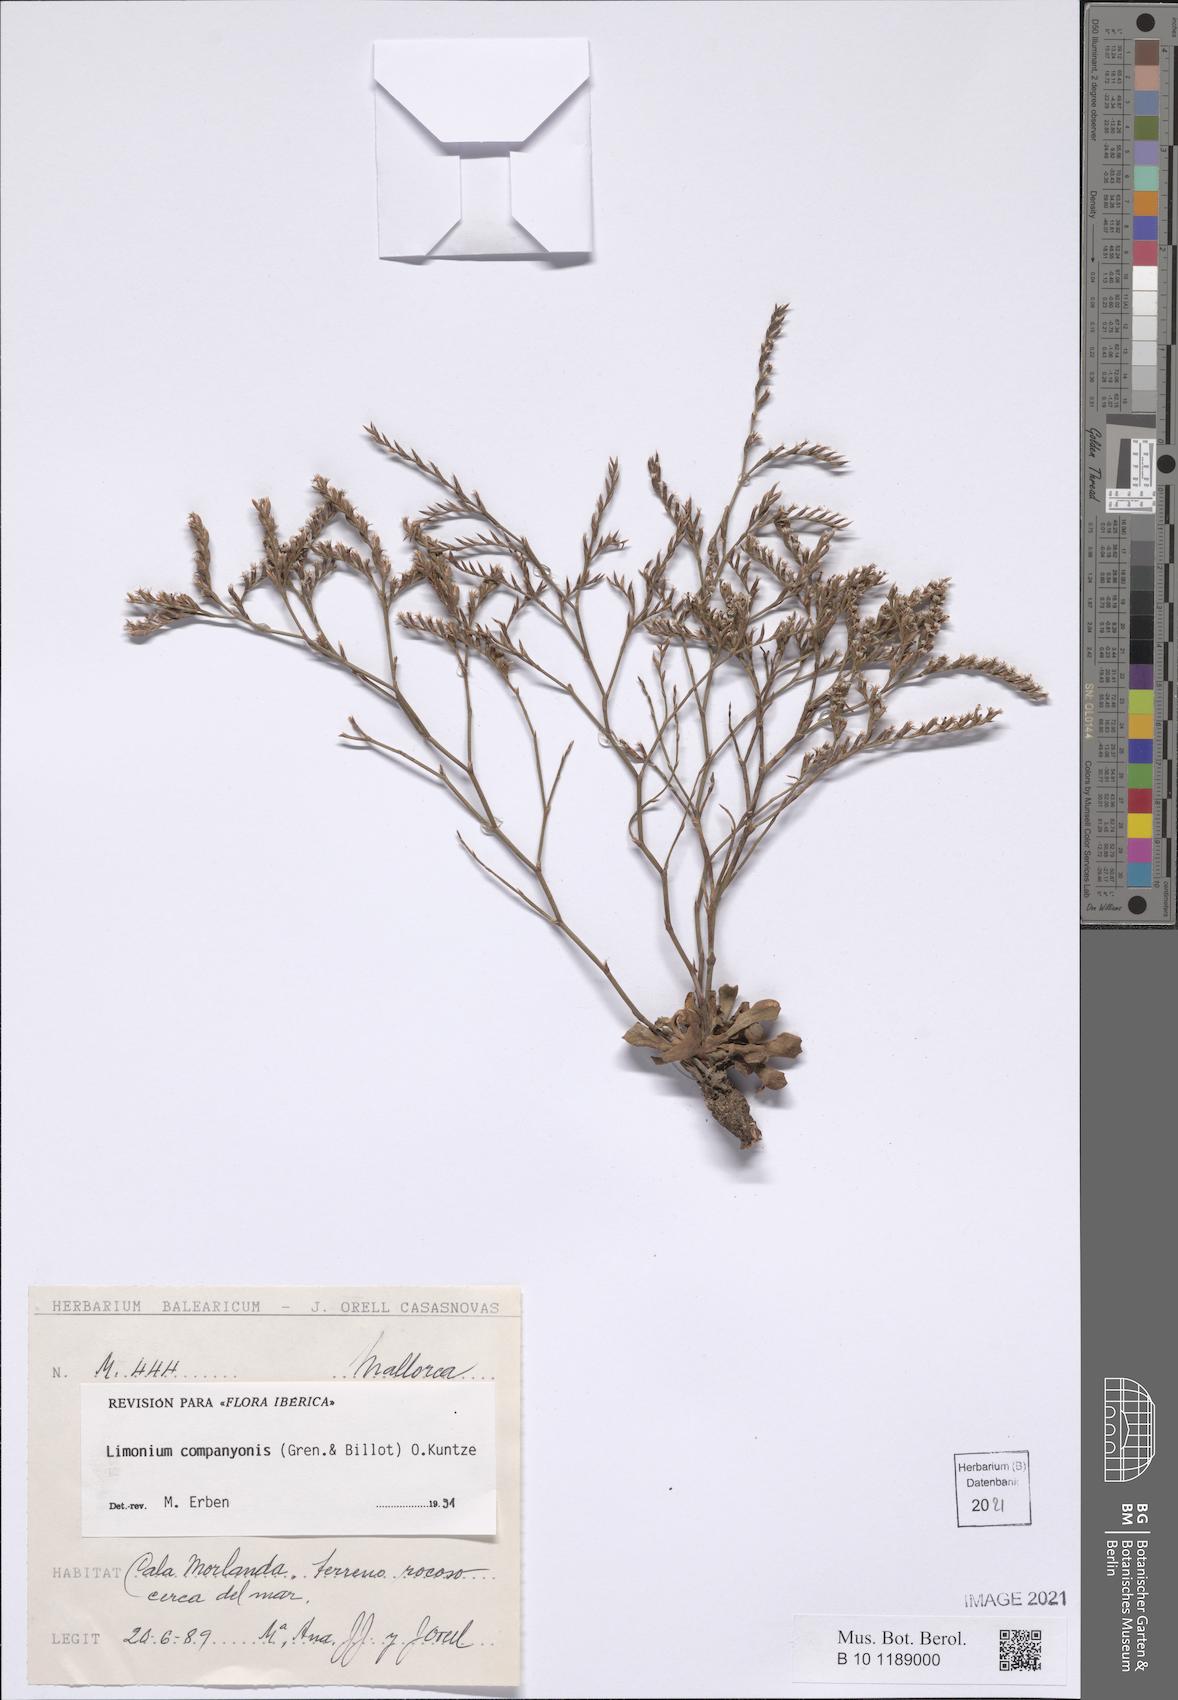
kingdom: Plantae
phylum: Tracheophyta
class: Magnoliopsida
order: Caryophyllales
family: Plumbaginaceae
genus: Limonium
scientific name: Limonium companyonis
